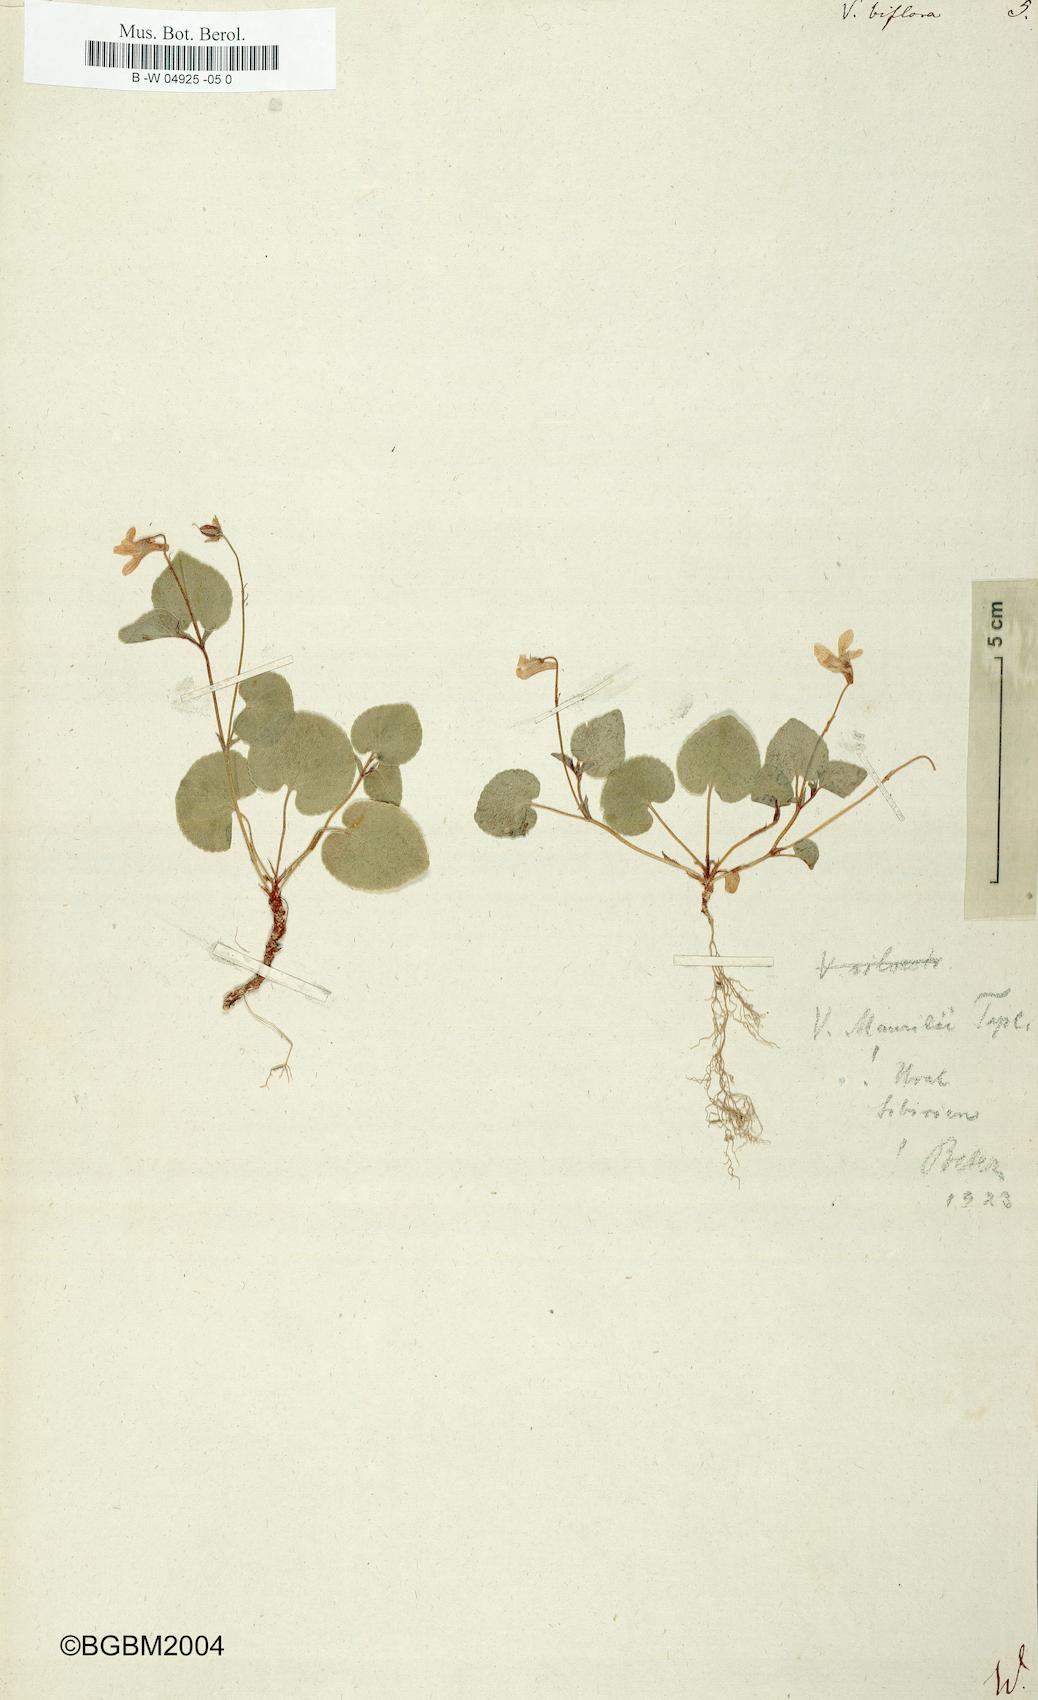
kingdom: Plantae
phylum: Tracheophyta
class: Magnoliopsida
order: Malpighiales
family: Violaceae
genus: Viola
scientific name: Viola biflora
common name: Alpine yellow violet
